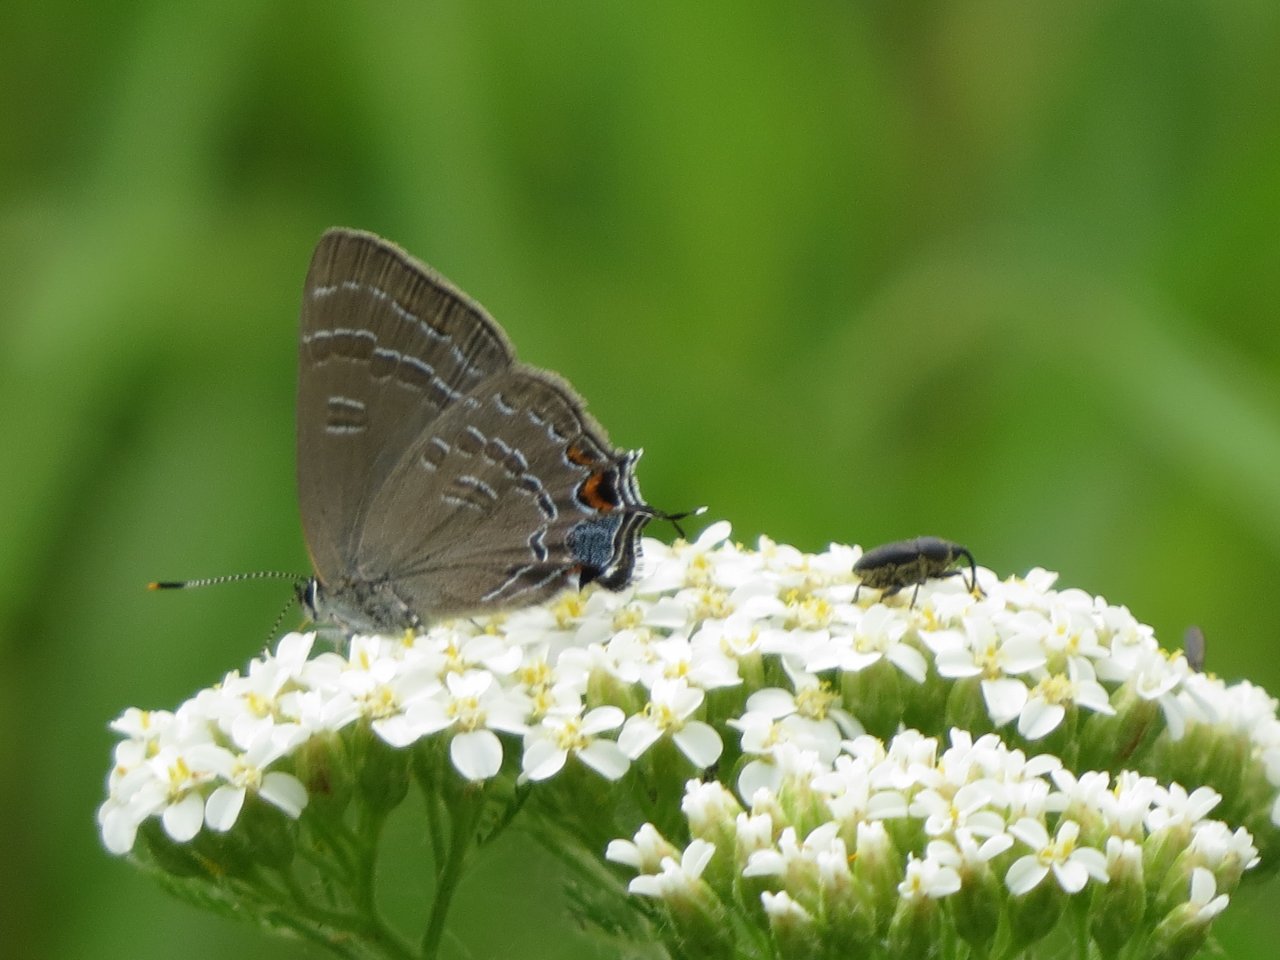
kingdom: Animalia
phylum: Arthropoda
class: Insecta
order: Lepidoptera
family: Lycaenidae
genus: Satyrium
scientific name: Satyrium calanus
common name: Banded Hairstreak
